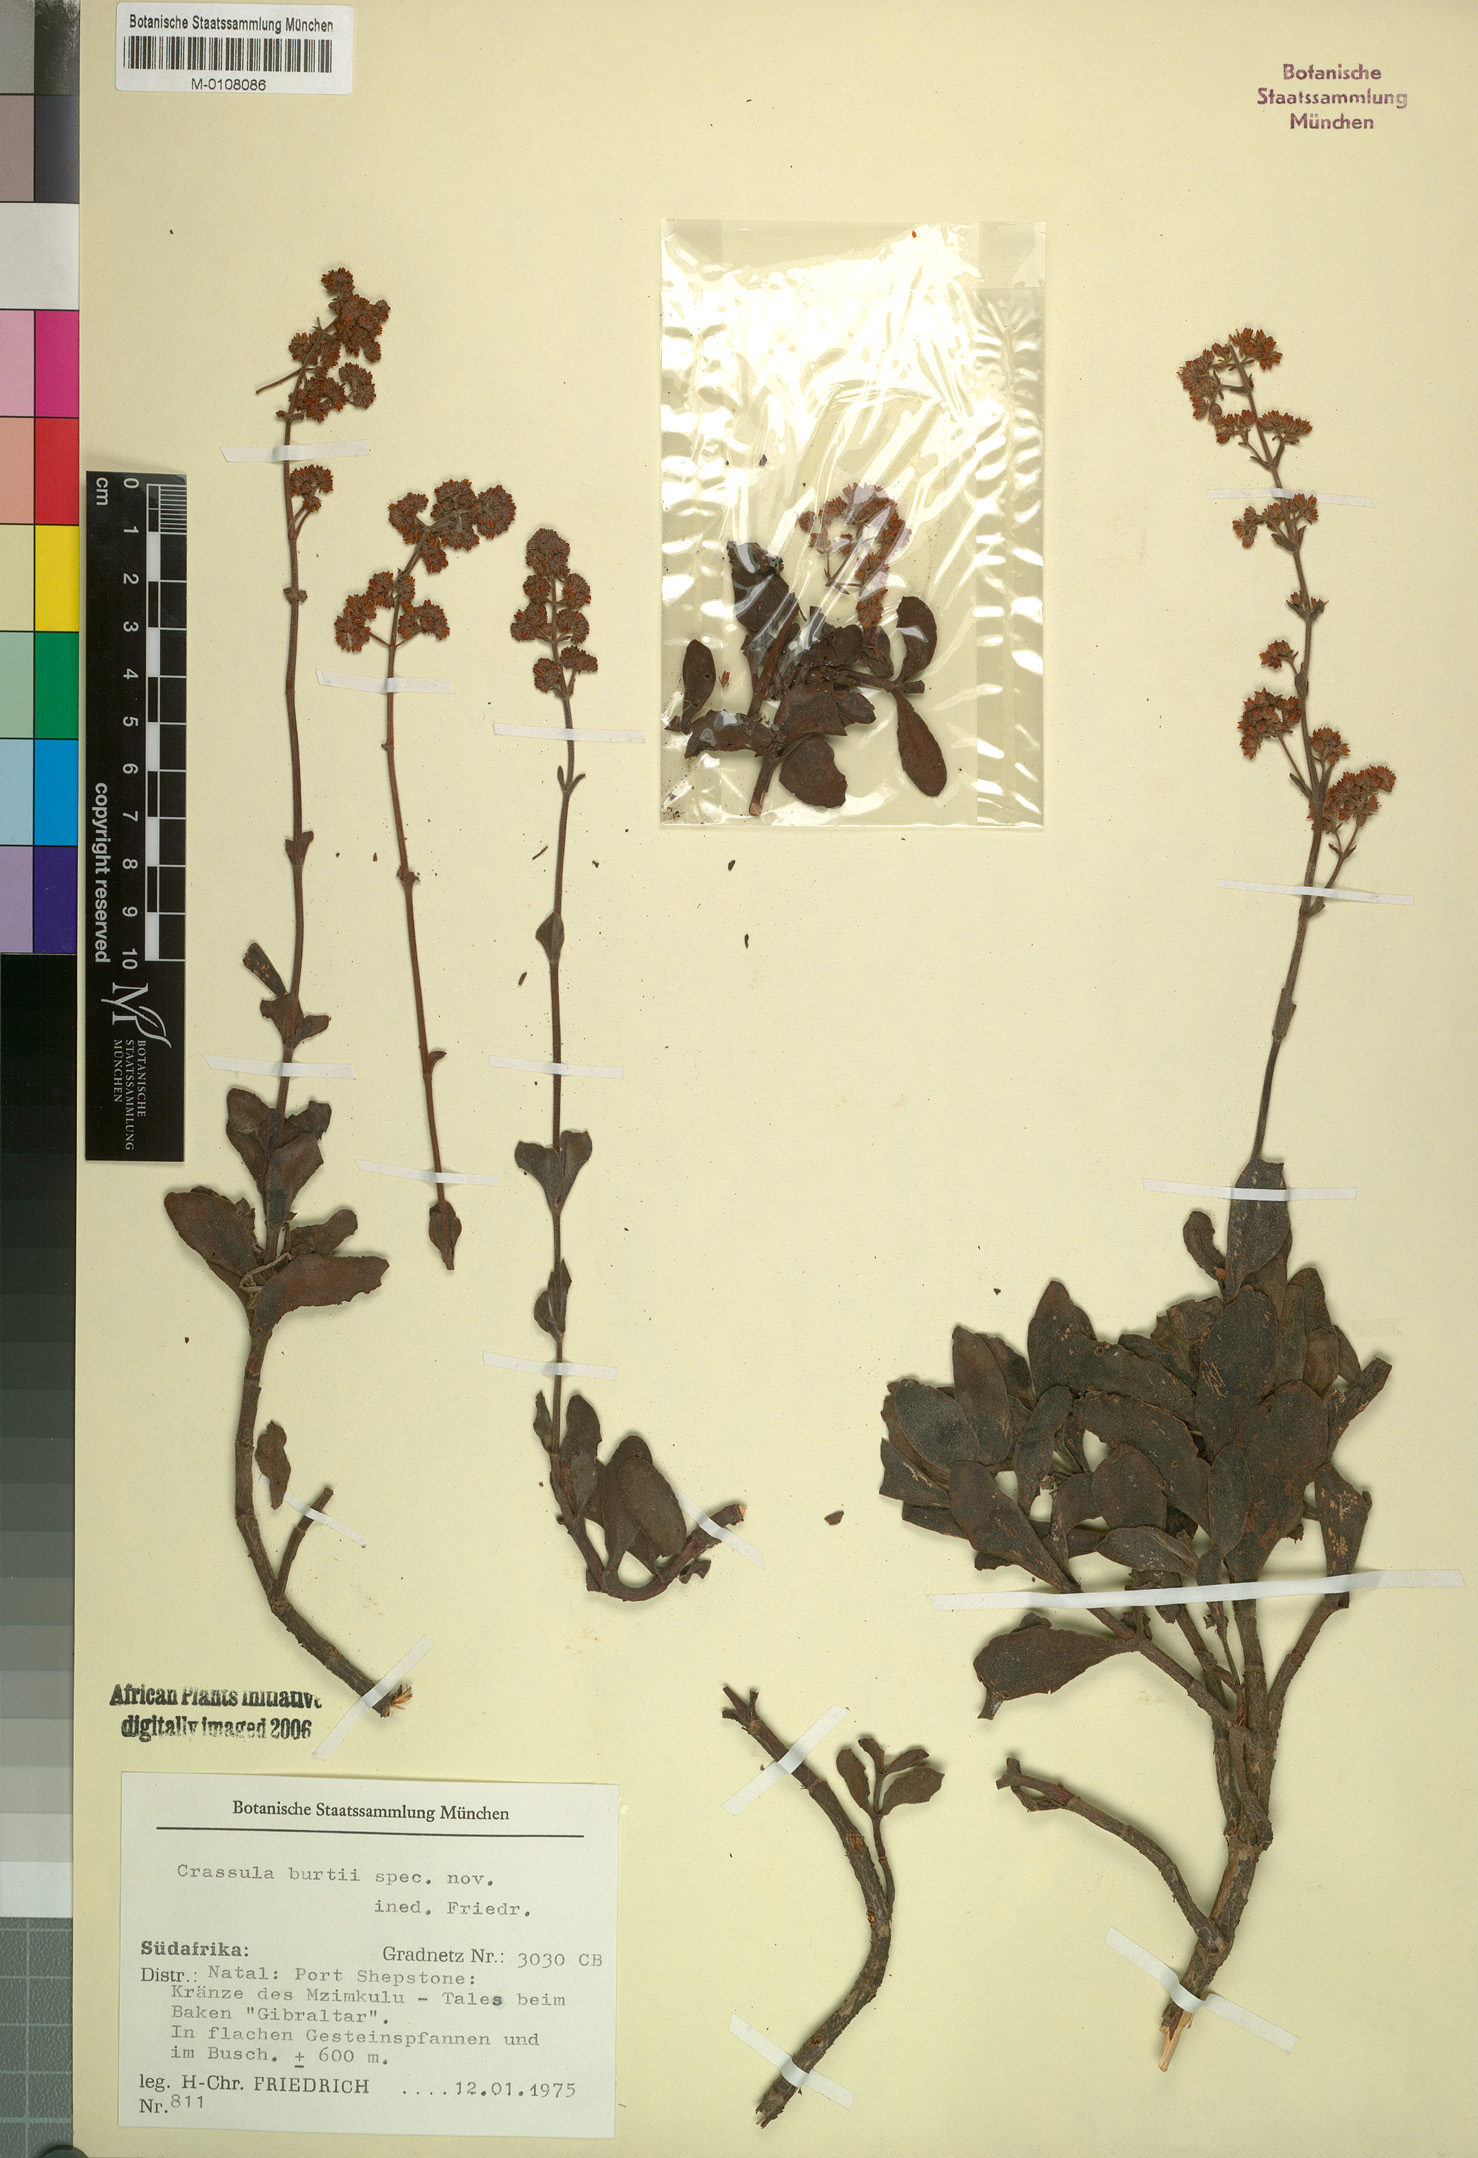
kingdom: Plantae
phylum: Tracheophyta
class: Magnoliopsida
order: Saxifragales
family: Crassulaceae
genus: Crassula
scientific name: Crassula
